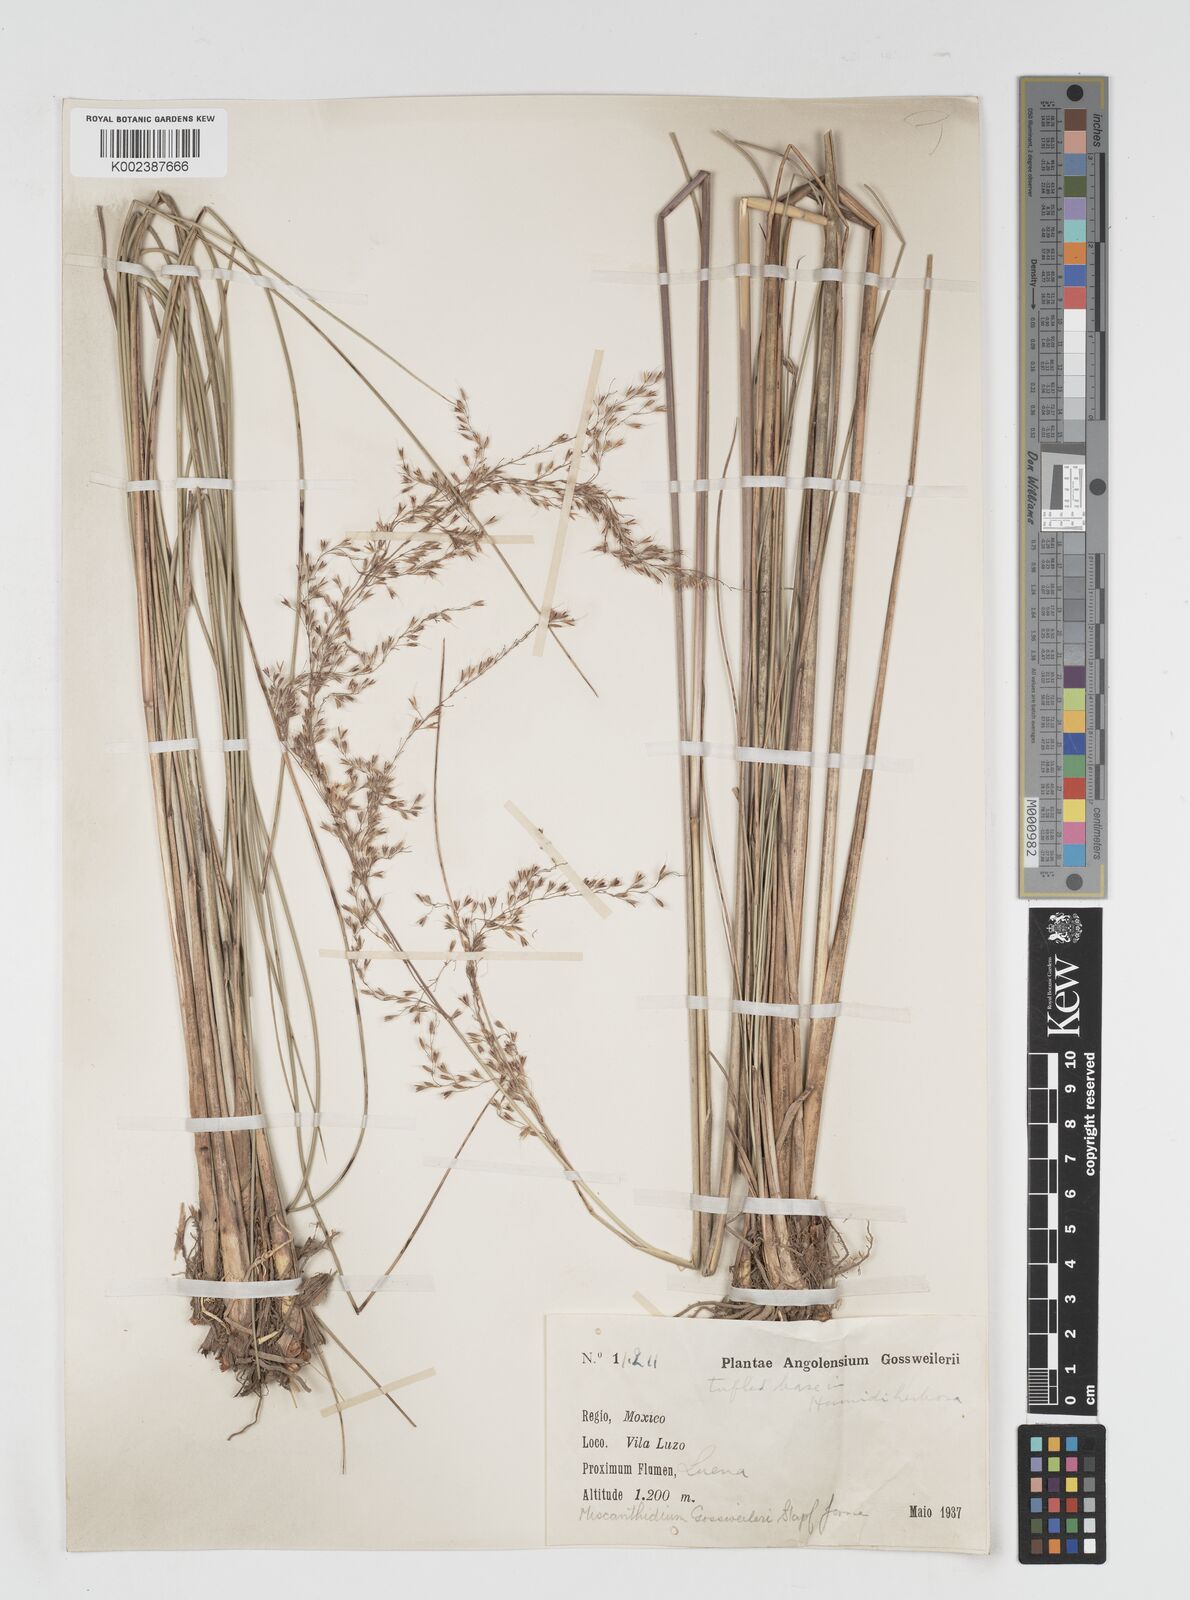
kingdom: Plantae
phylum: Tracheophyta
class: Liliopsida
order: Poales
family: Poaceae
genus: Miscanthidium
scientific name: Miscanthidium junceum
